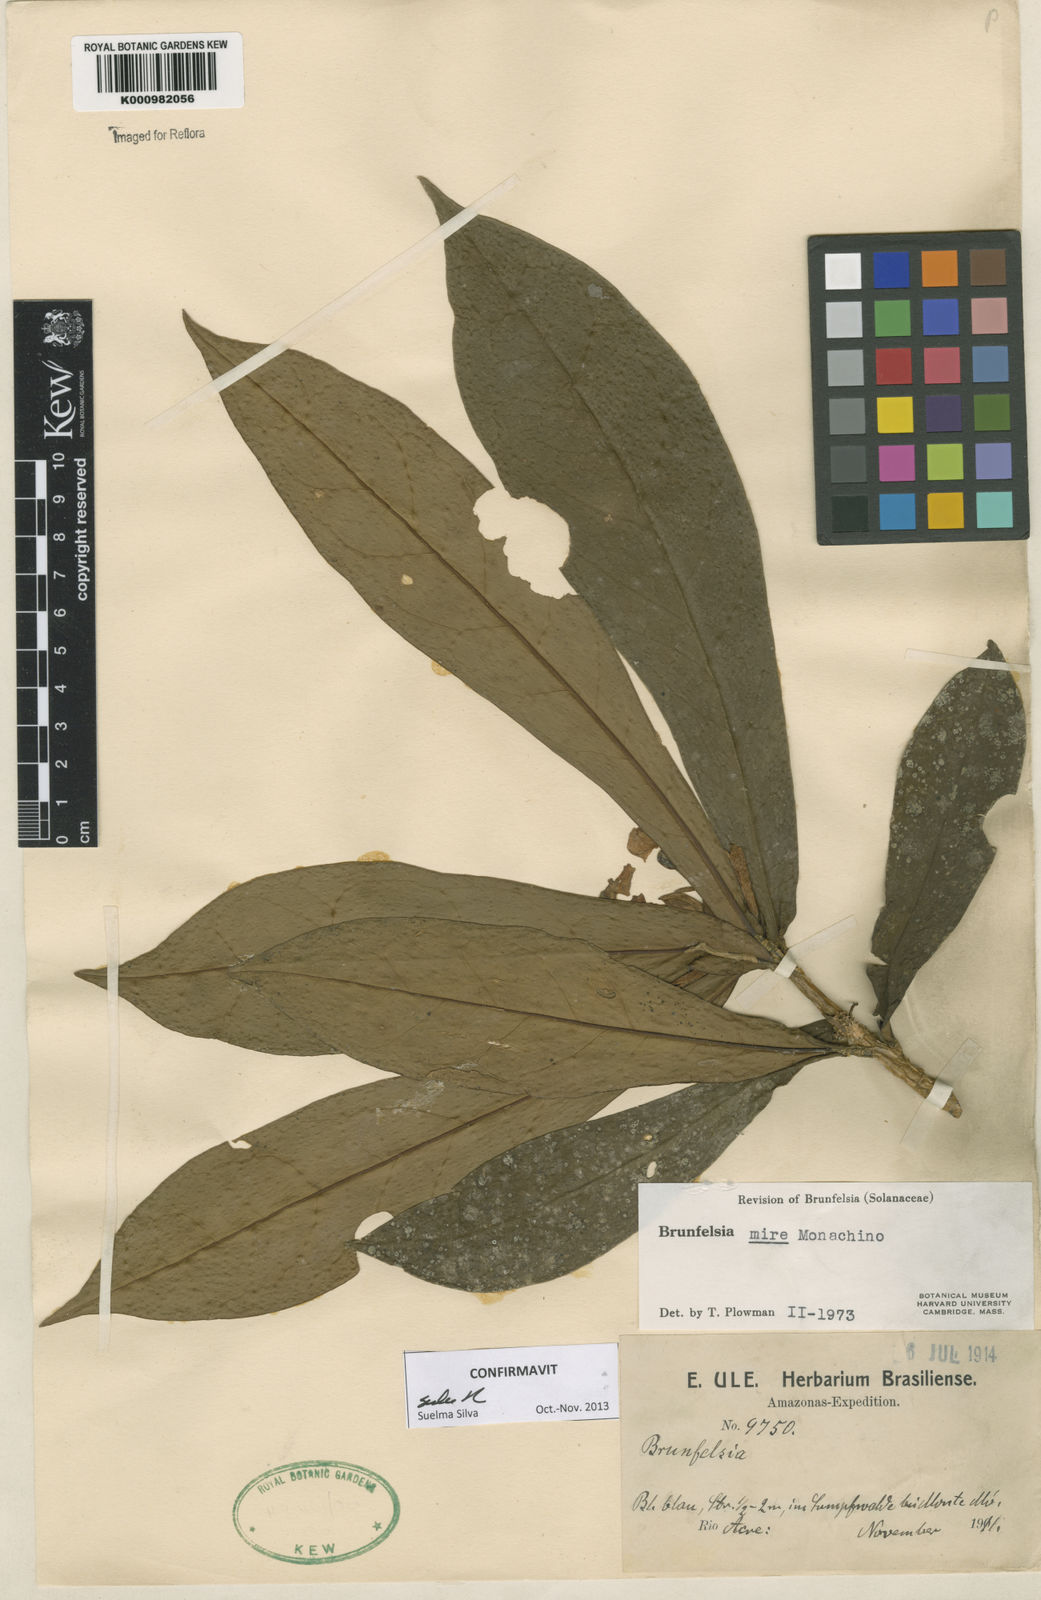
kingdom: Plantae
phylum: Tracheophyta
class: Magnoliopsida
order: Solanales
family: Solanaceae
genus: Brunfelsia
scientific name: Brunfelsia mire
